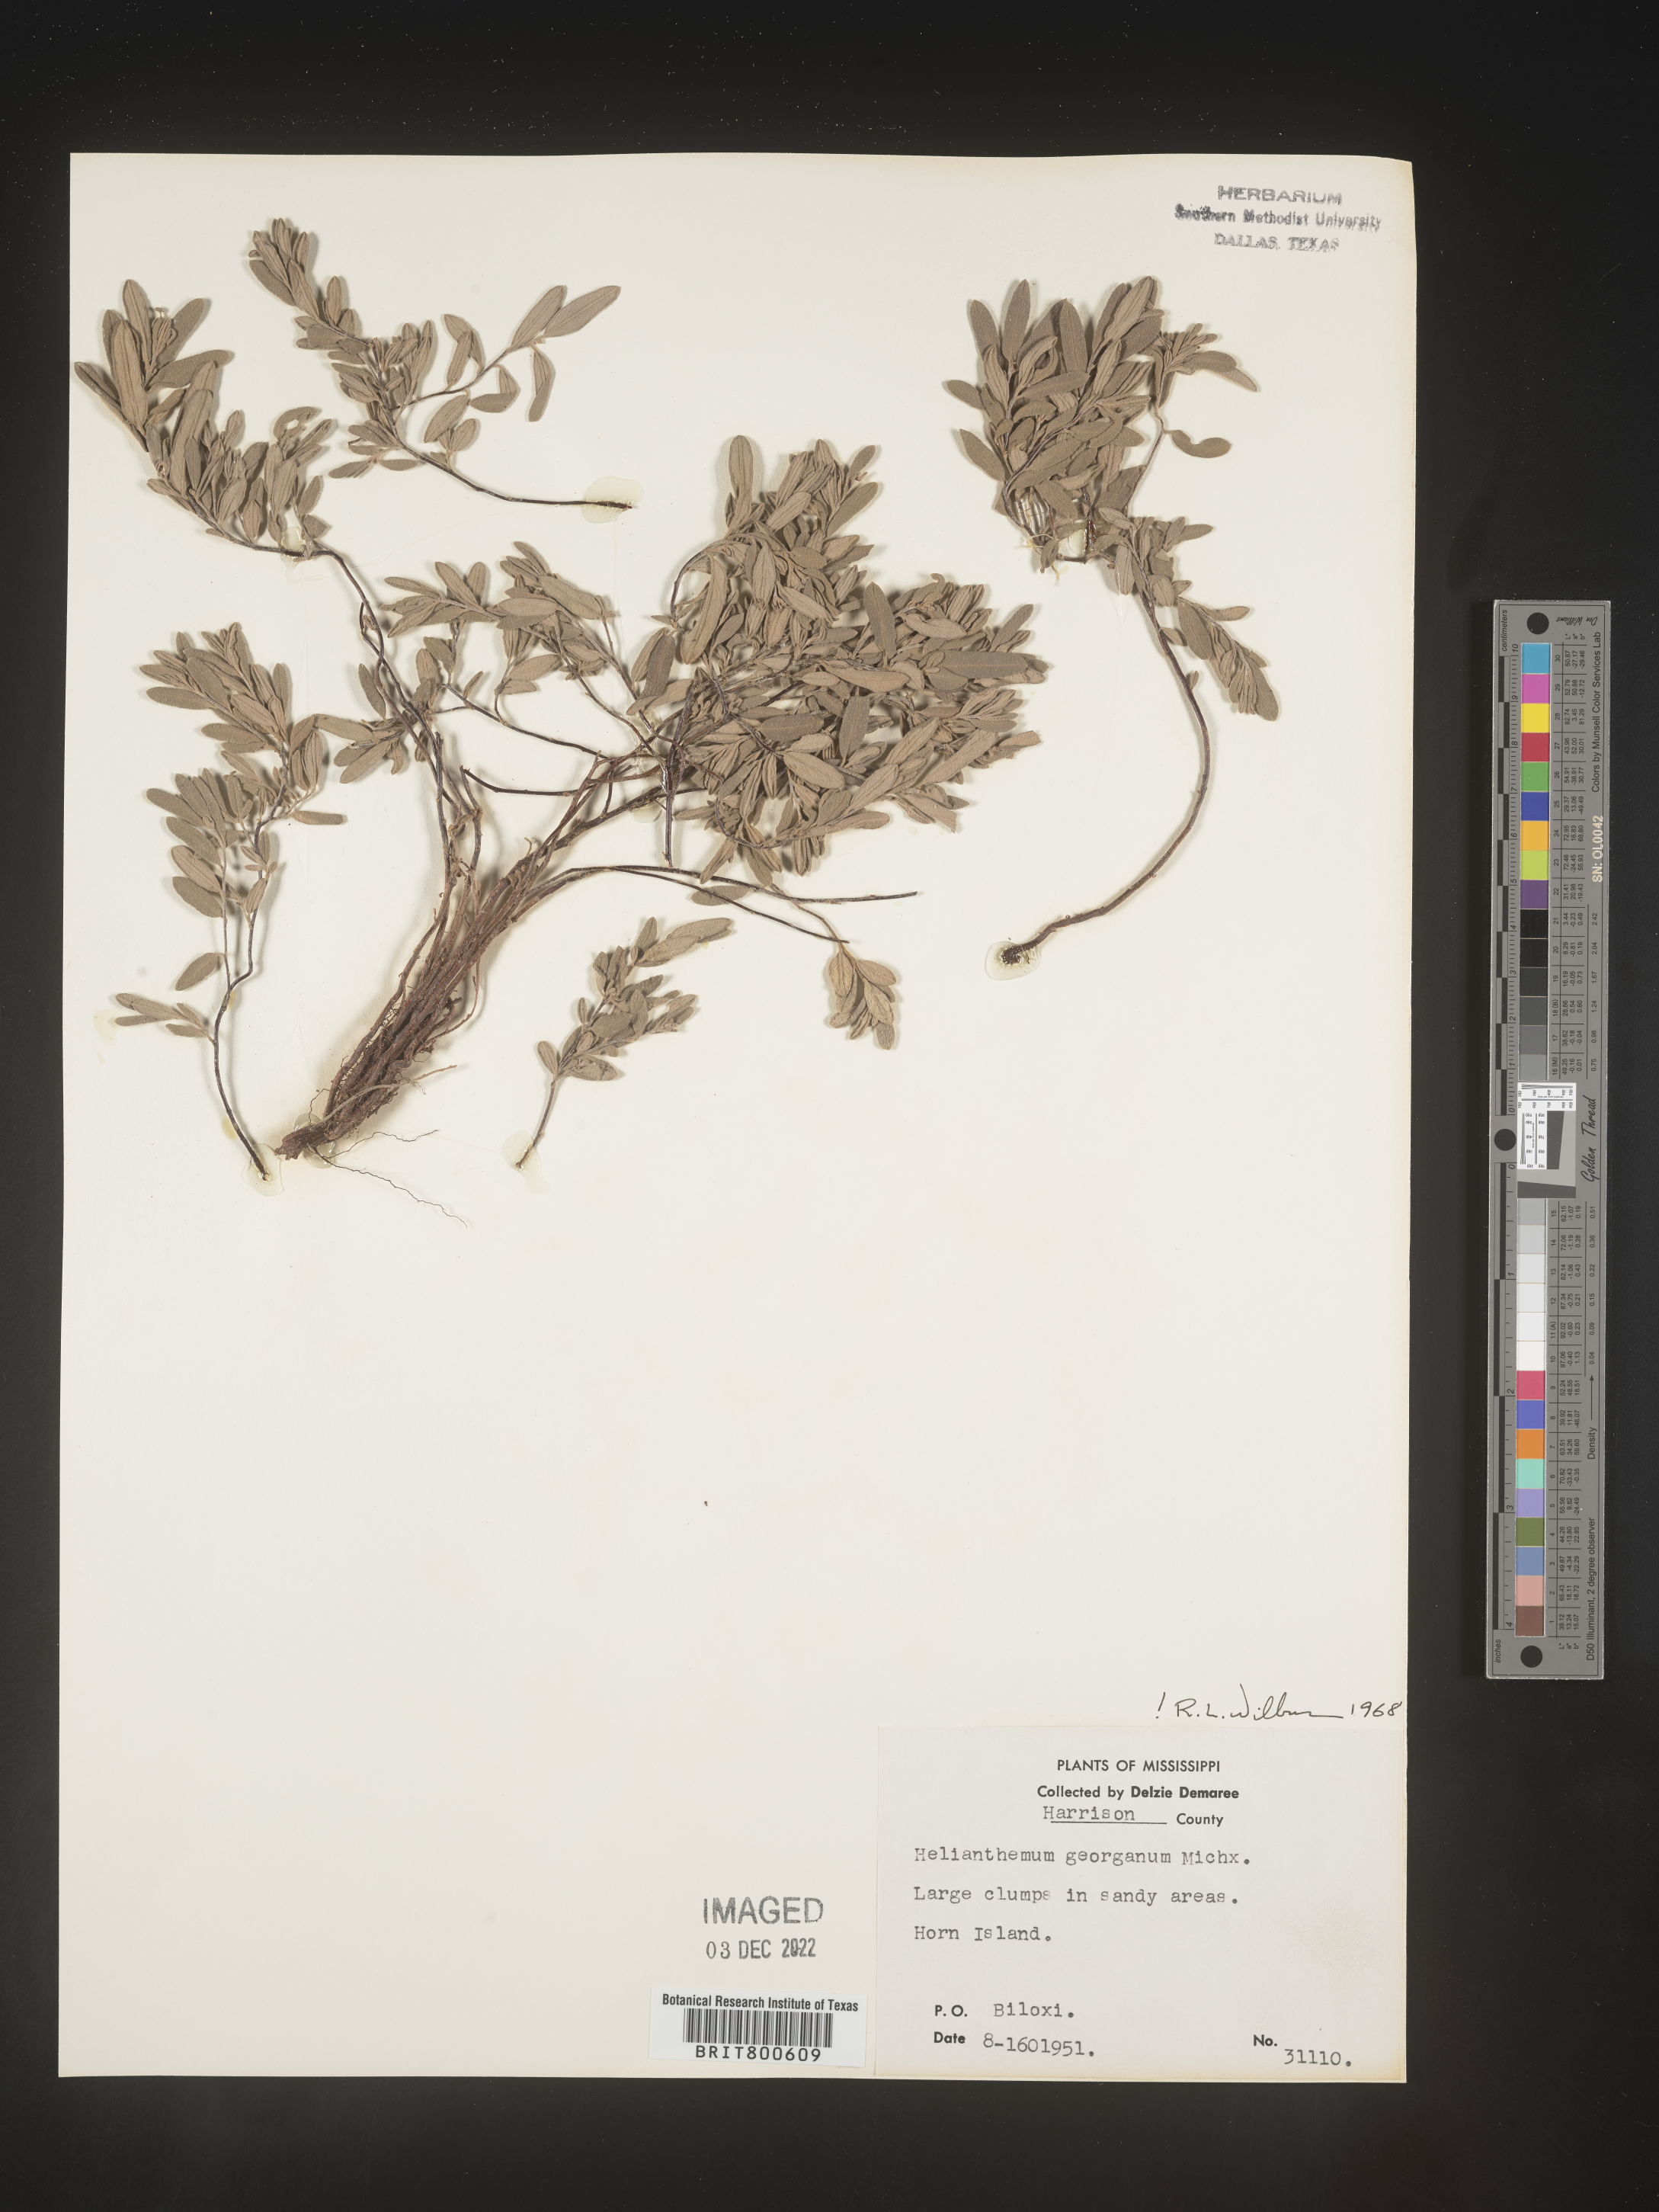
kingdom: Plantae
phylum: Tracheophyta
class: Magnoliopsida
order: Malvales
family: Cistaceae
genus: Crocanthemum
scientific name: Crocanthemum georgianum
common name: Georgia frostweed
